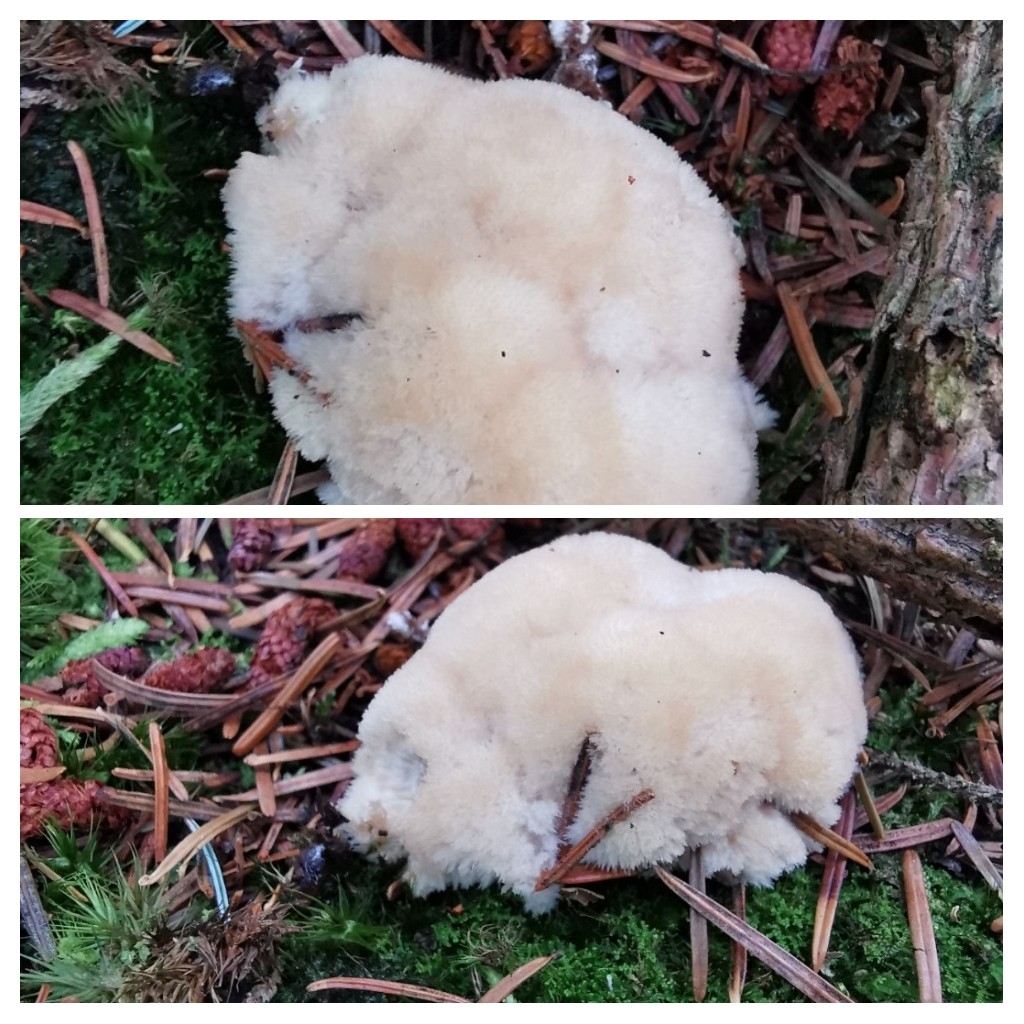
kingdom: Fungi
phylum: Basidiomycota
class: Agaricomycetes
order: Polyporales
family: Dacryobolaceae
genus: Postia
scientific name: Postia ptychogaster
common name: støvende kødporesvamp
